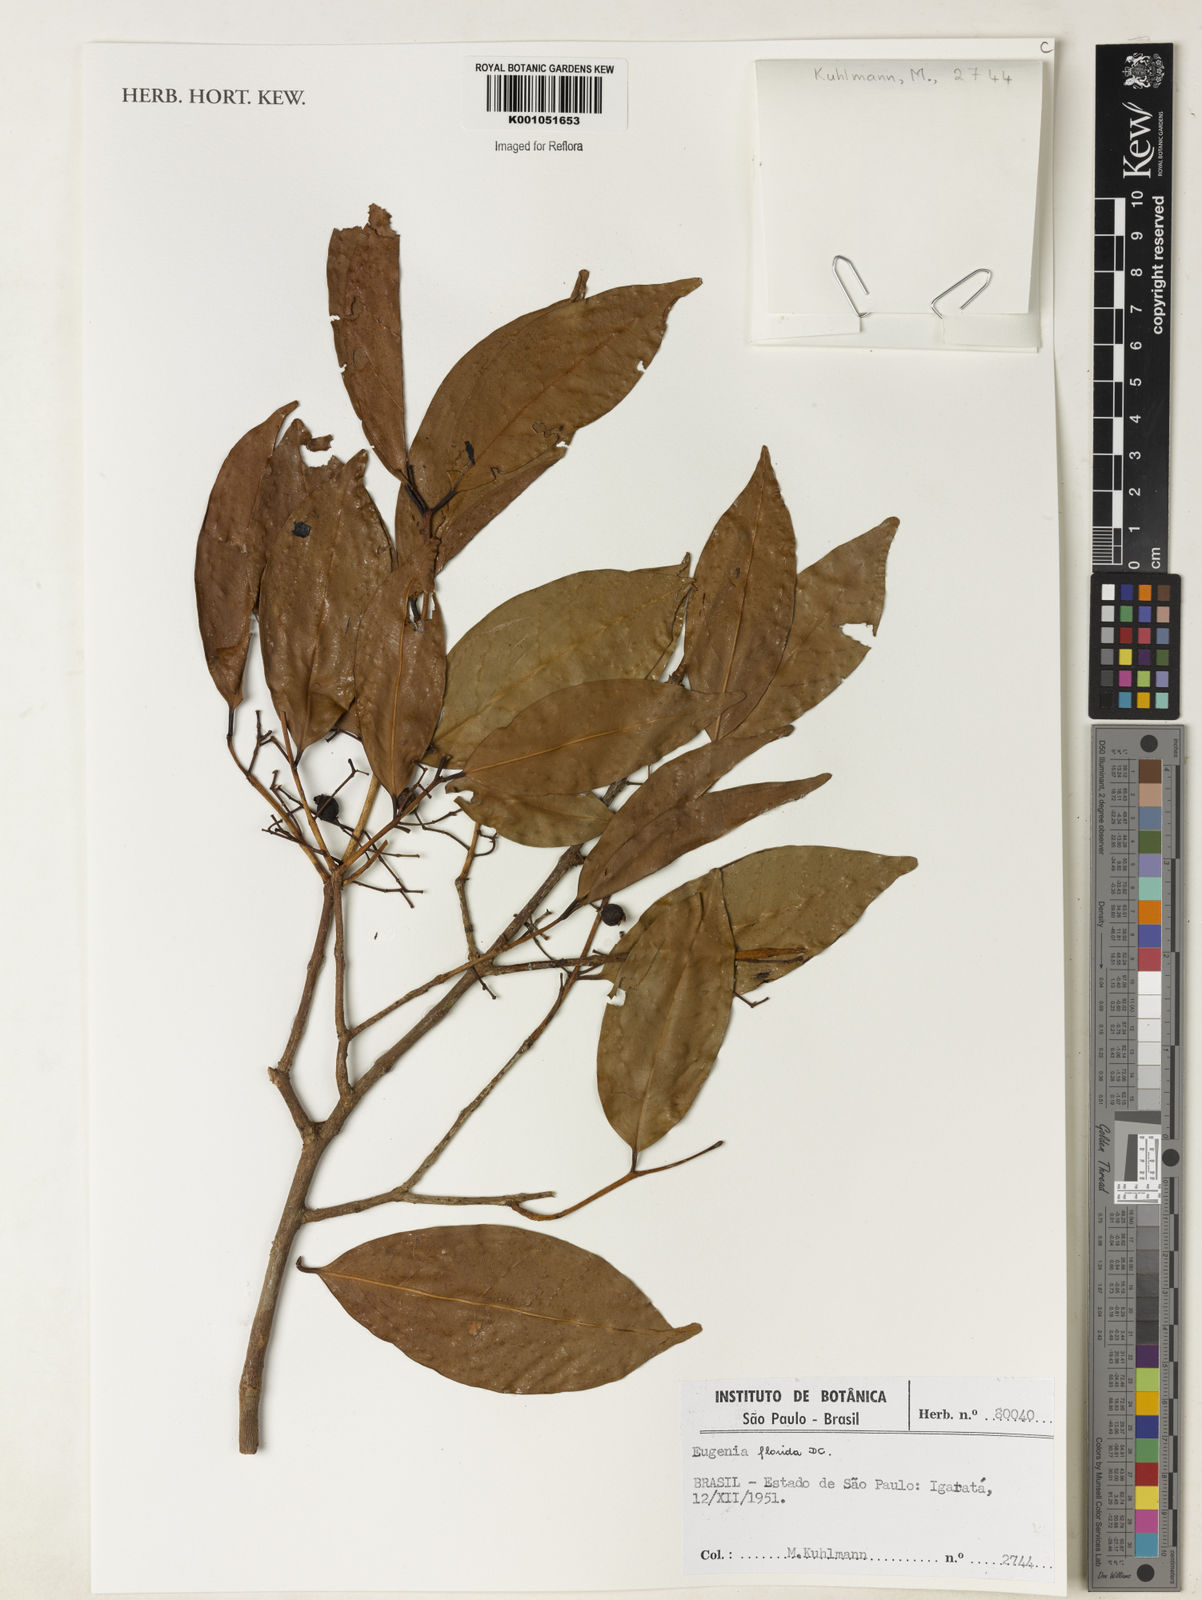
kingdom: Plantae
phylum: Tracheophyta
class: Magnoliopsida
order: Myrtales
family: Myrtaceae
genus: Eugenia
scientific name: Eugenia florida
